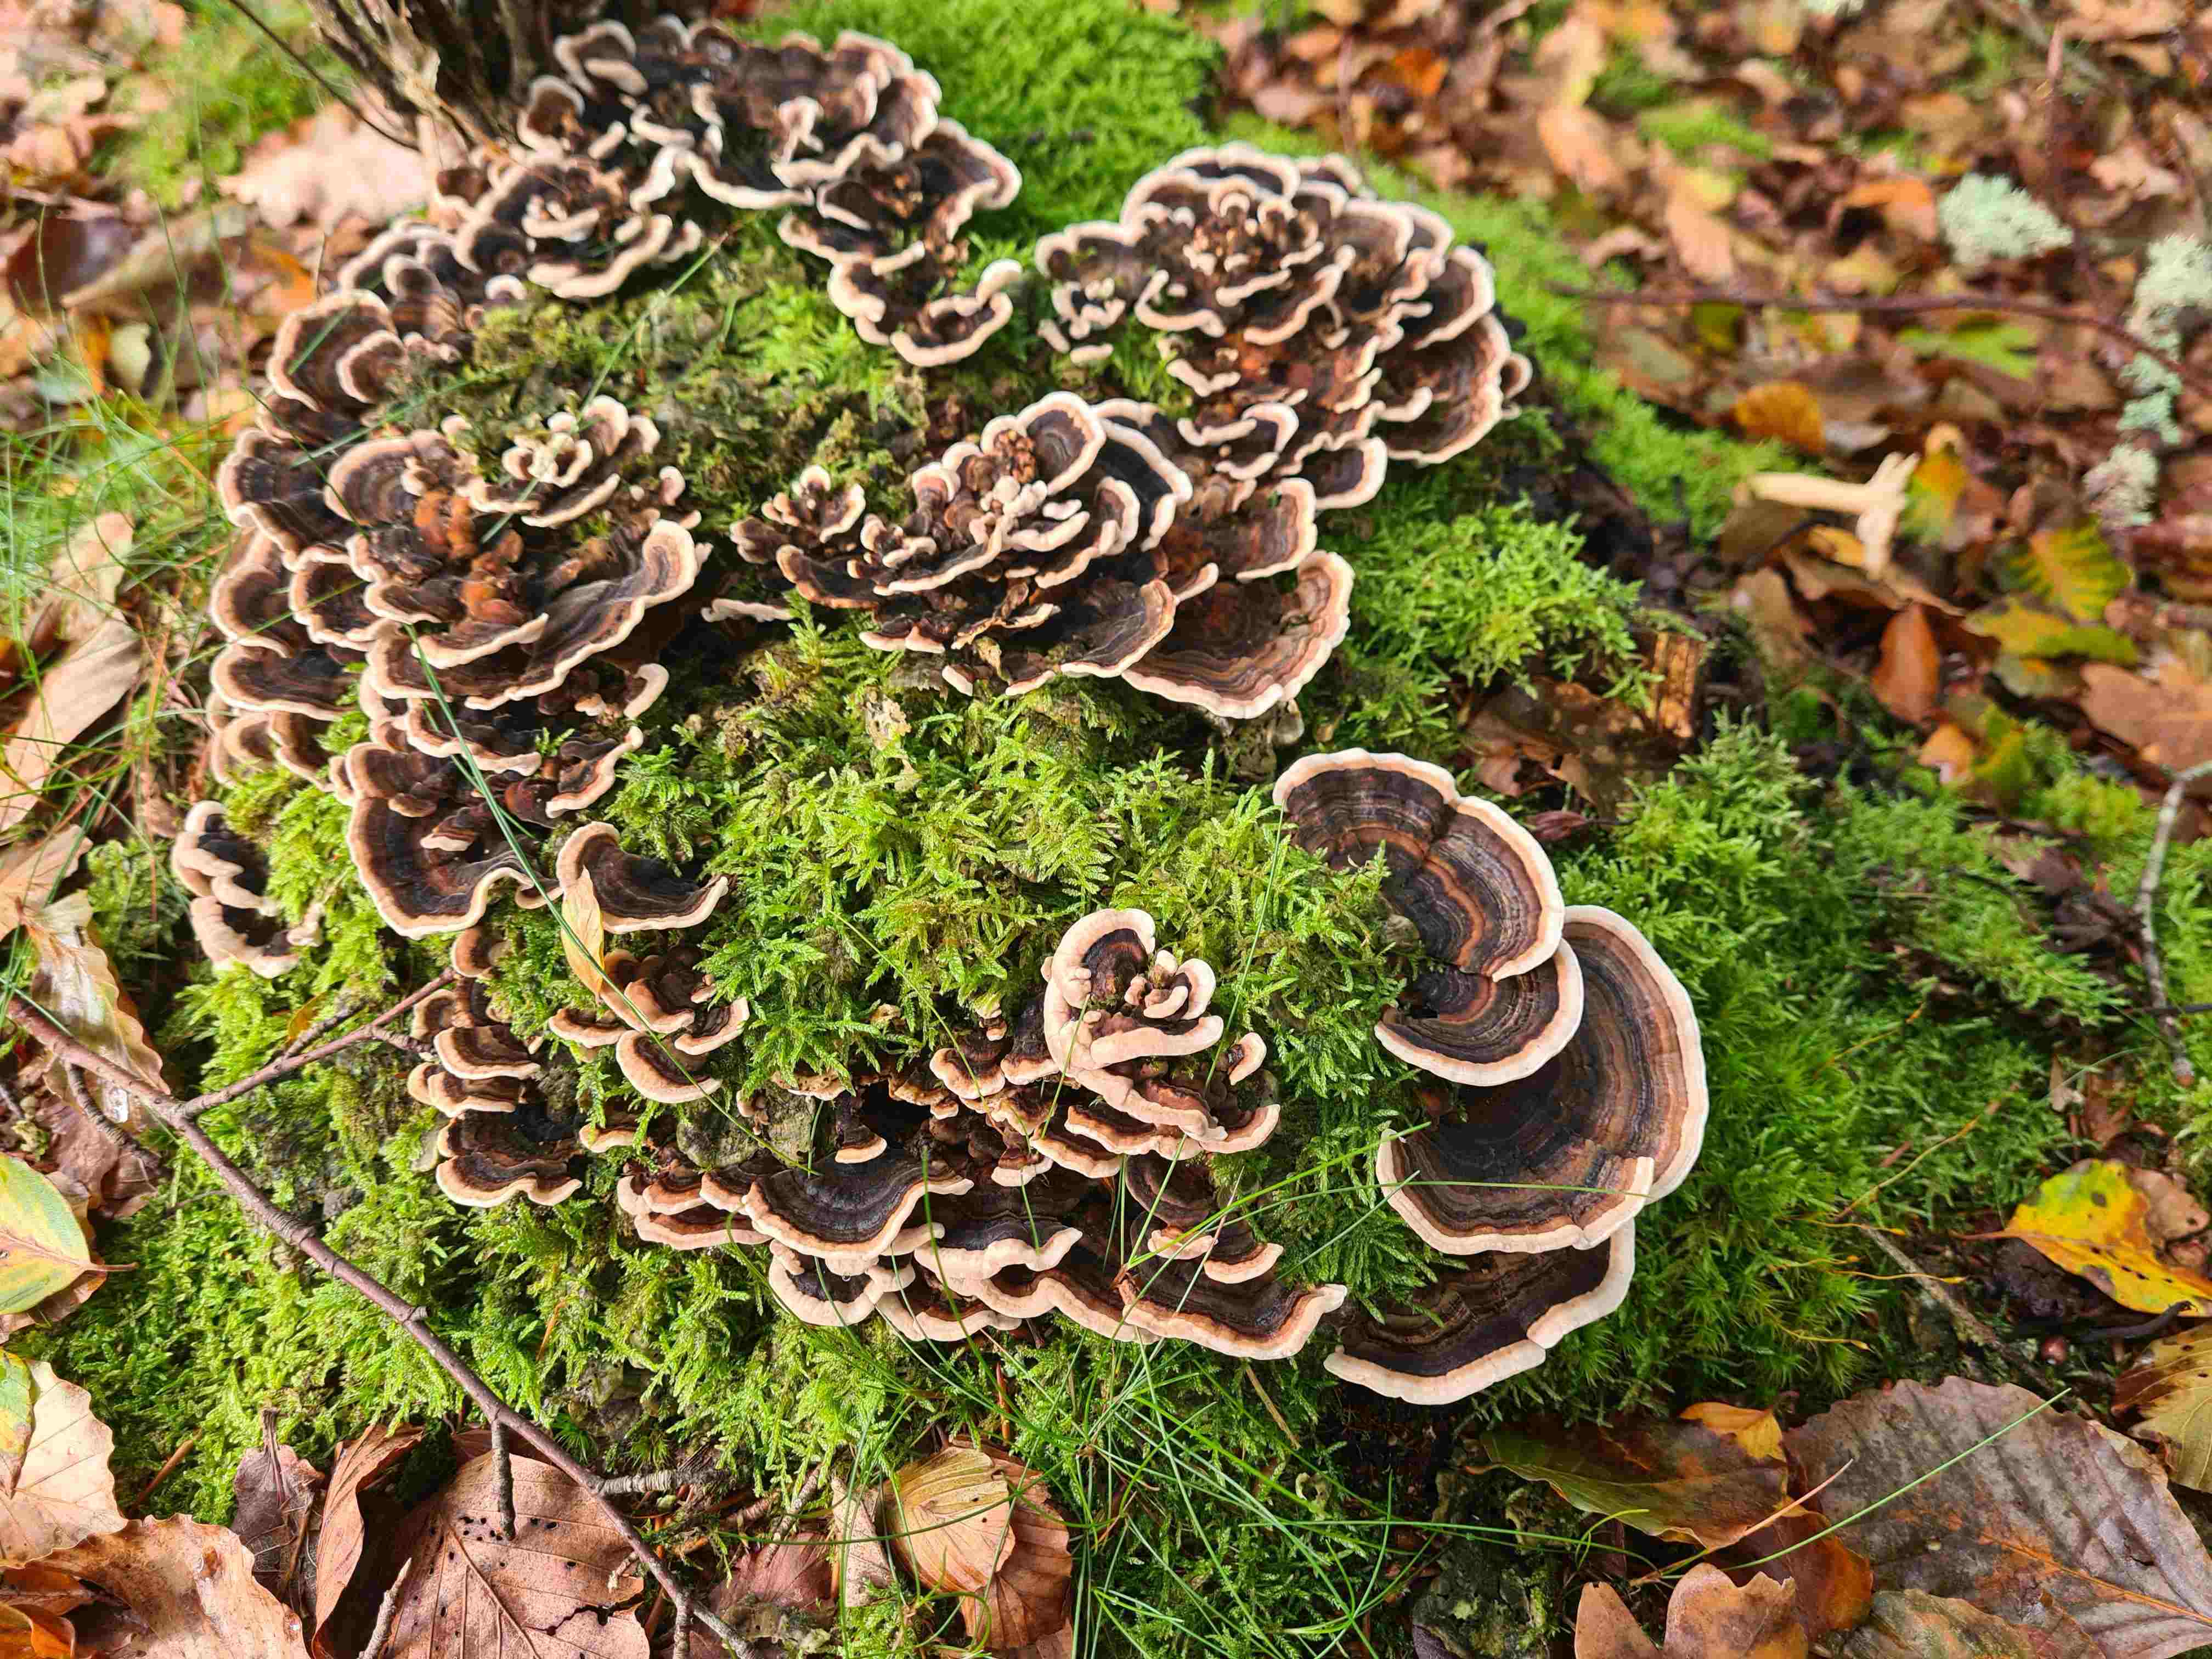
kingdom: Fungi
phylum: Basidiomycota
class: Agaricomycetes
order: Polyporales
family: Polyporaceae
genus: Trametes
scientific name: Trametes versicolor
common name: broget læderporesvamp
